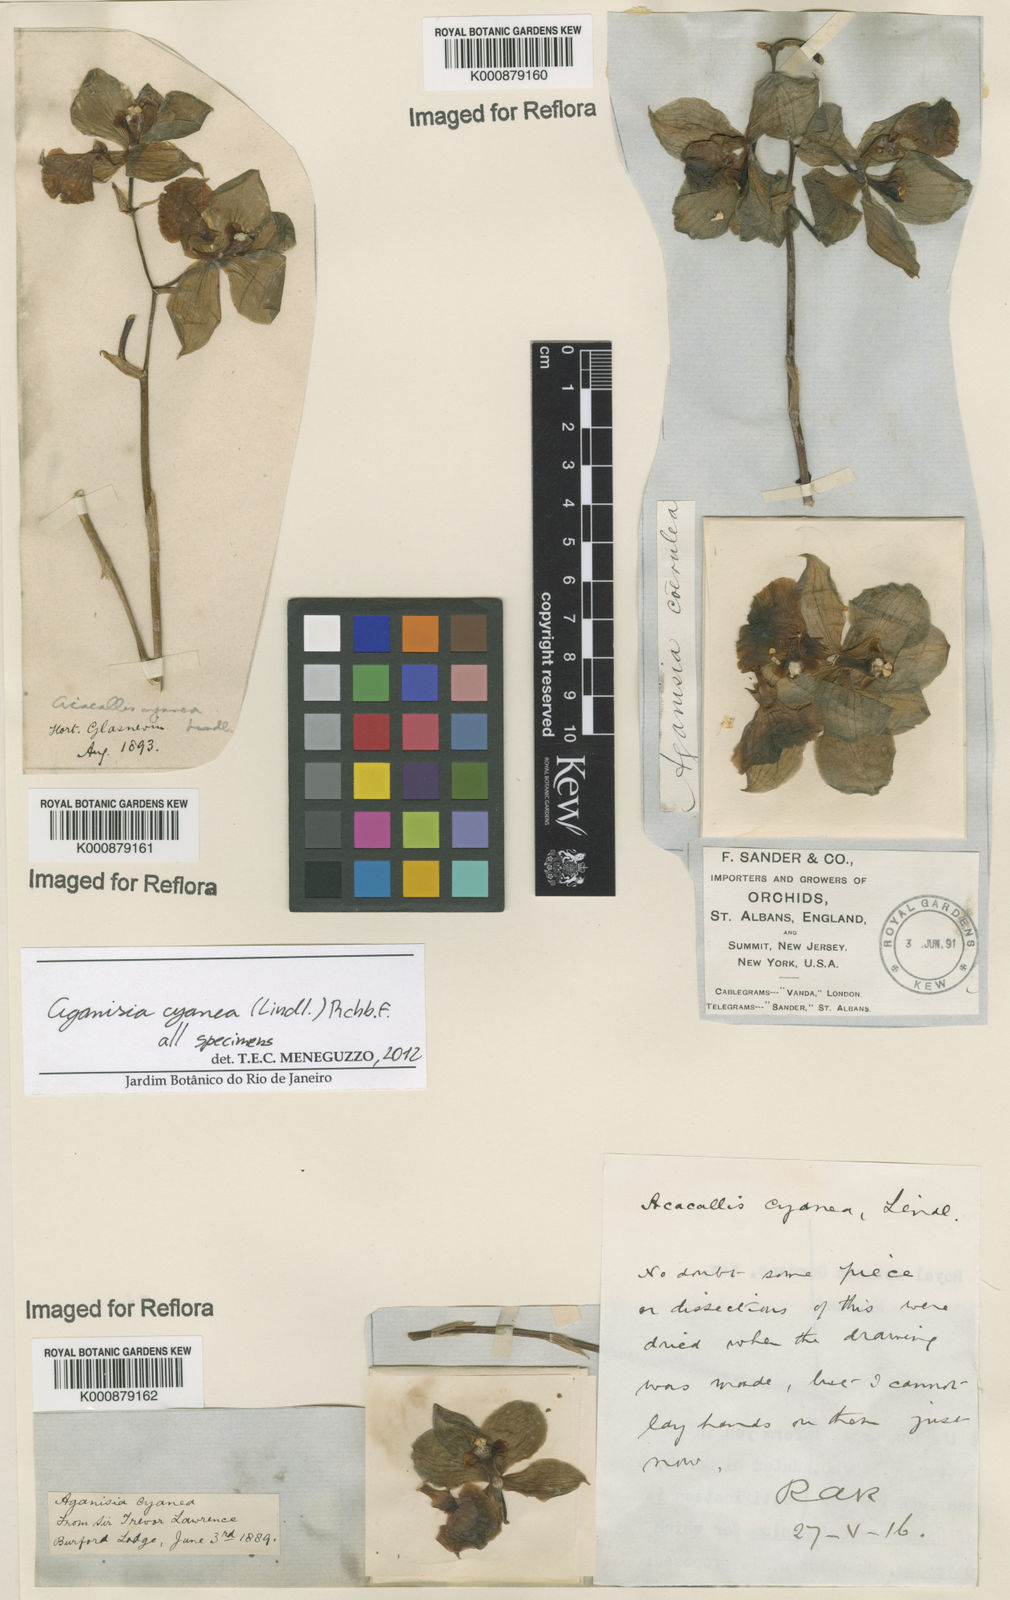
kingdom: Plantae
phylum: Tracheophyta
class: Liliopsida
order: Asparagales
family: Orchidaceae
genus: Aganisia
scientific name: Aganisia cyanea
